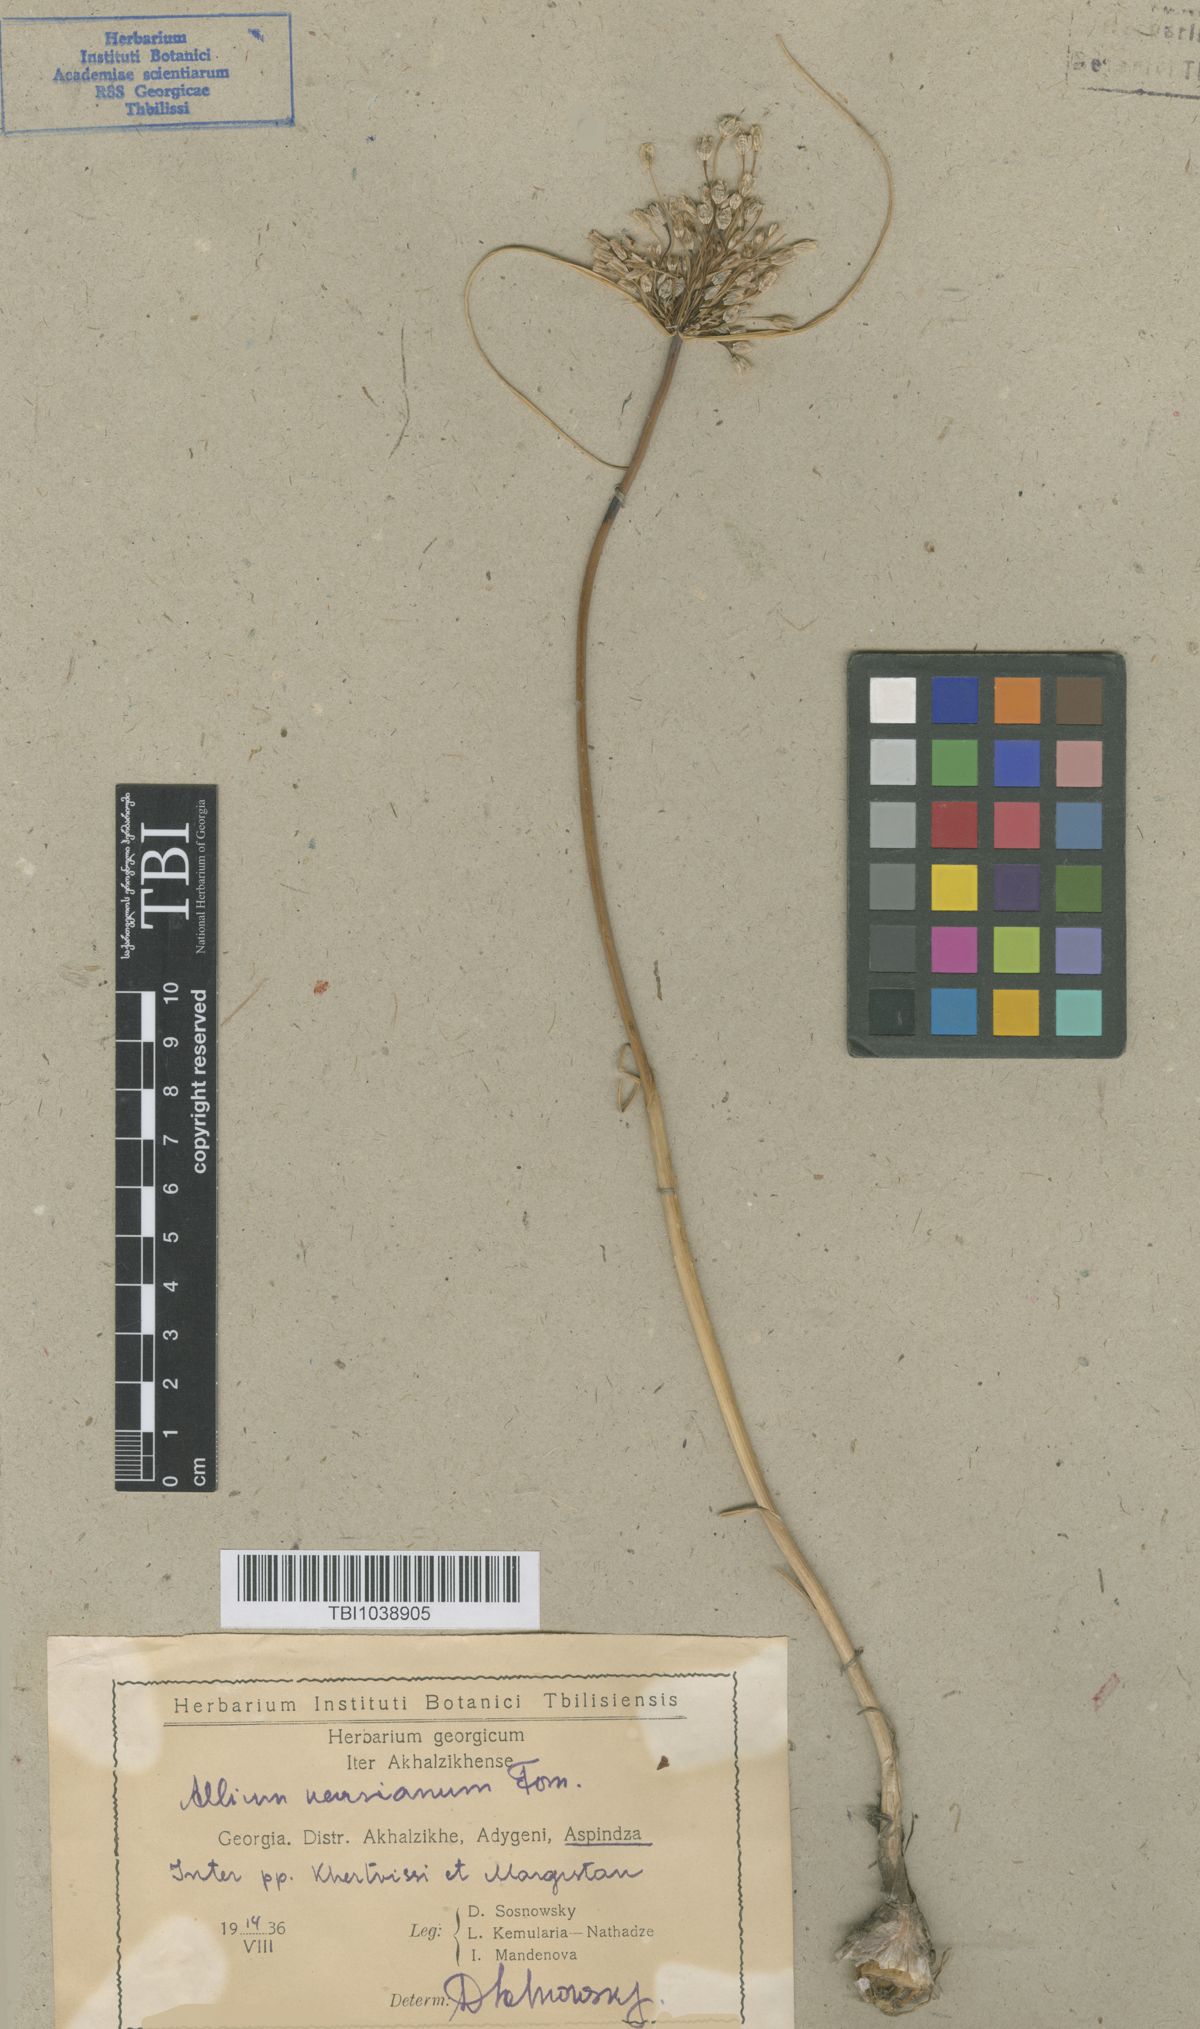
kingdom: Plantae
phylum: Tracheophyta
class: Liliopsida
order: Asparagales
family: Amaryllidaceae
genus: Allium
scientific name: Allium paniculatum
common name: Pale garlic
